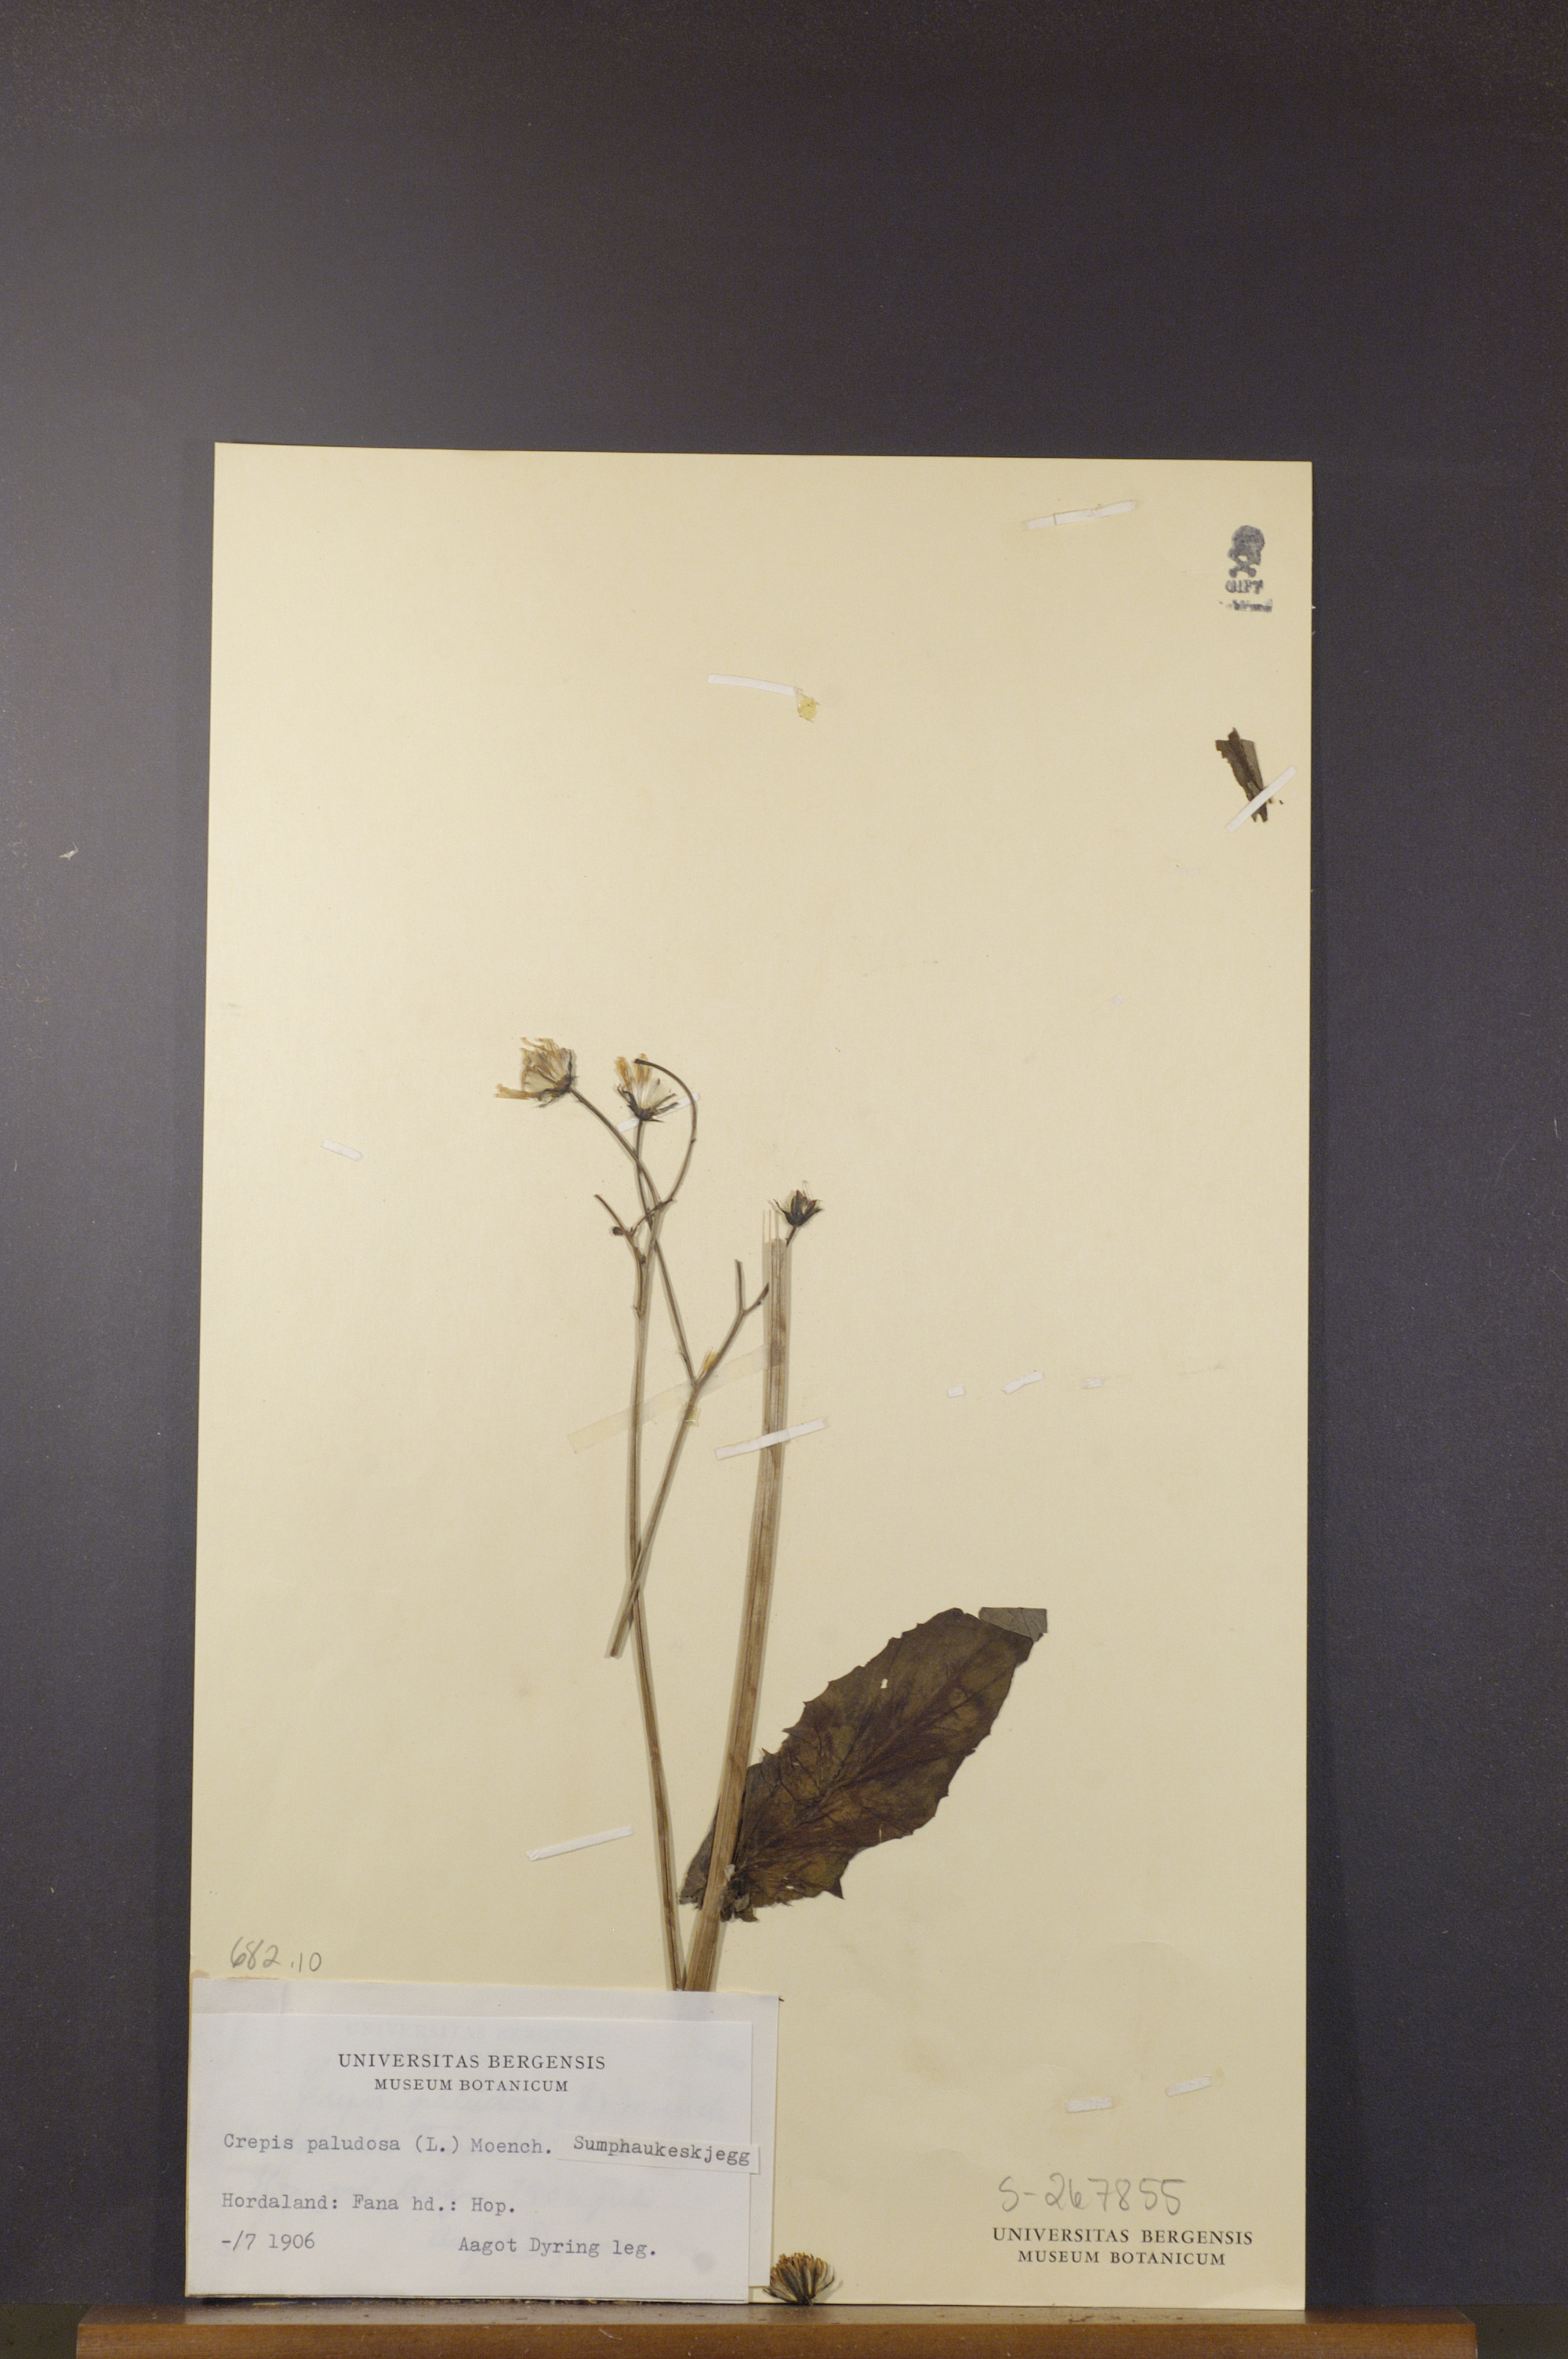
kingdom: Plantae
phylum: Tracheophyta
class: Magnoliopsida
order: Asterales
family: Asteraceae
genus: Crepis
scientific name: Crepis paludosa
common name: Marsh hawk's-beard
